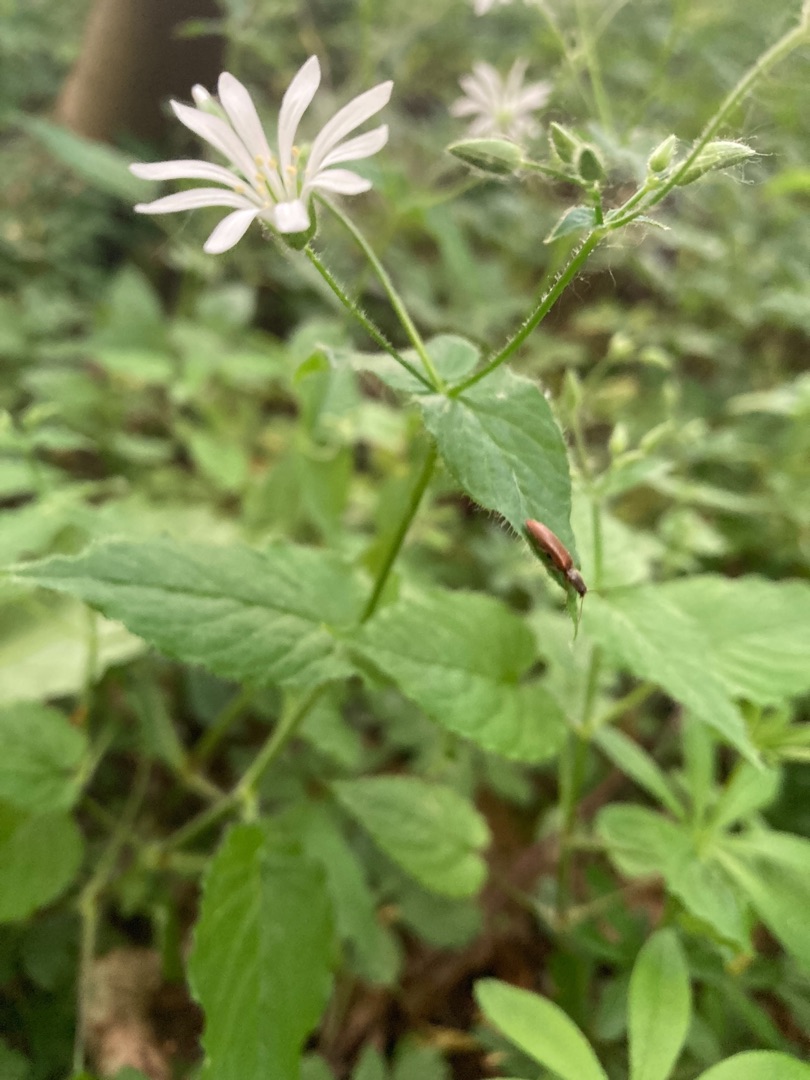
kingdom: Plantae
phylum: Tracheophyta
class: Magnoliopsida
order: Caryophyllales
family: Caryophyllaceae
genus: Stellaria
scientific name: Stellaria nemorum
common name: Lund-fladstjerne
